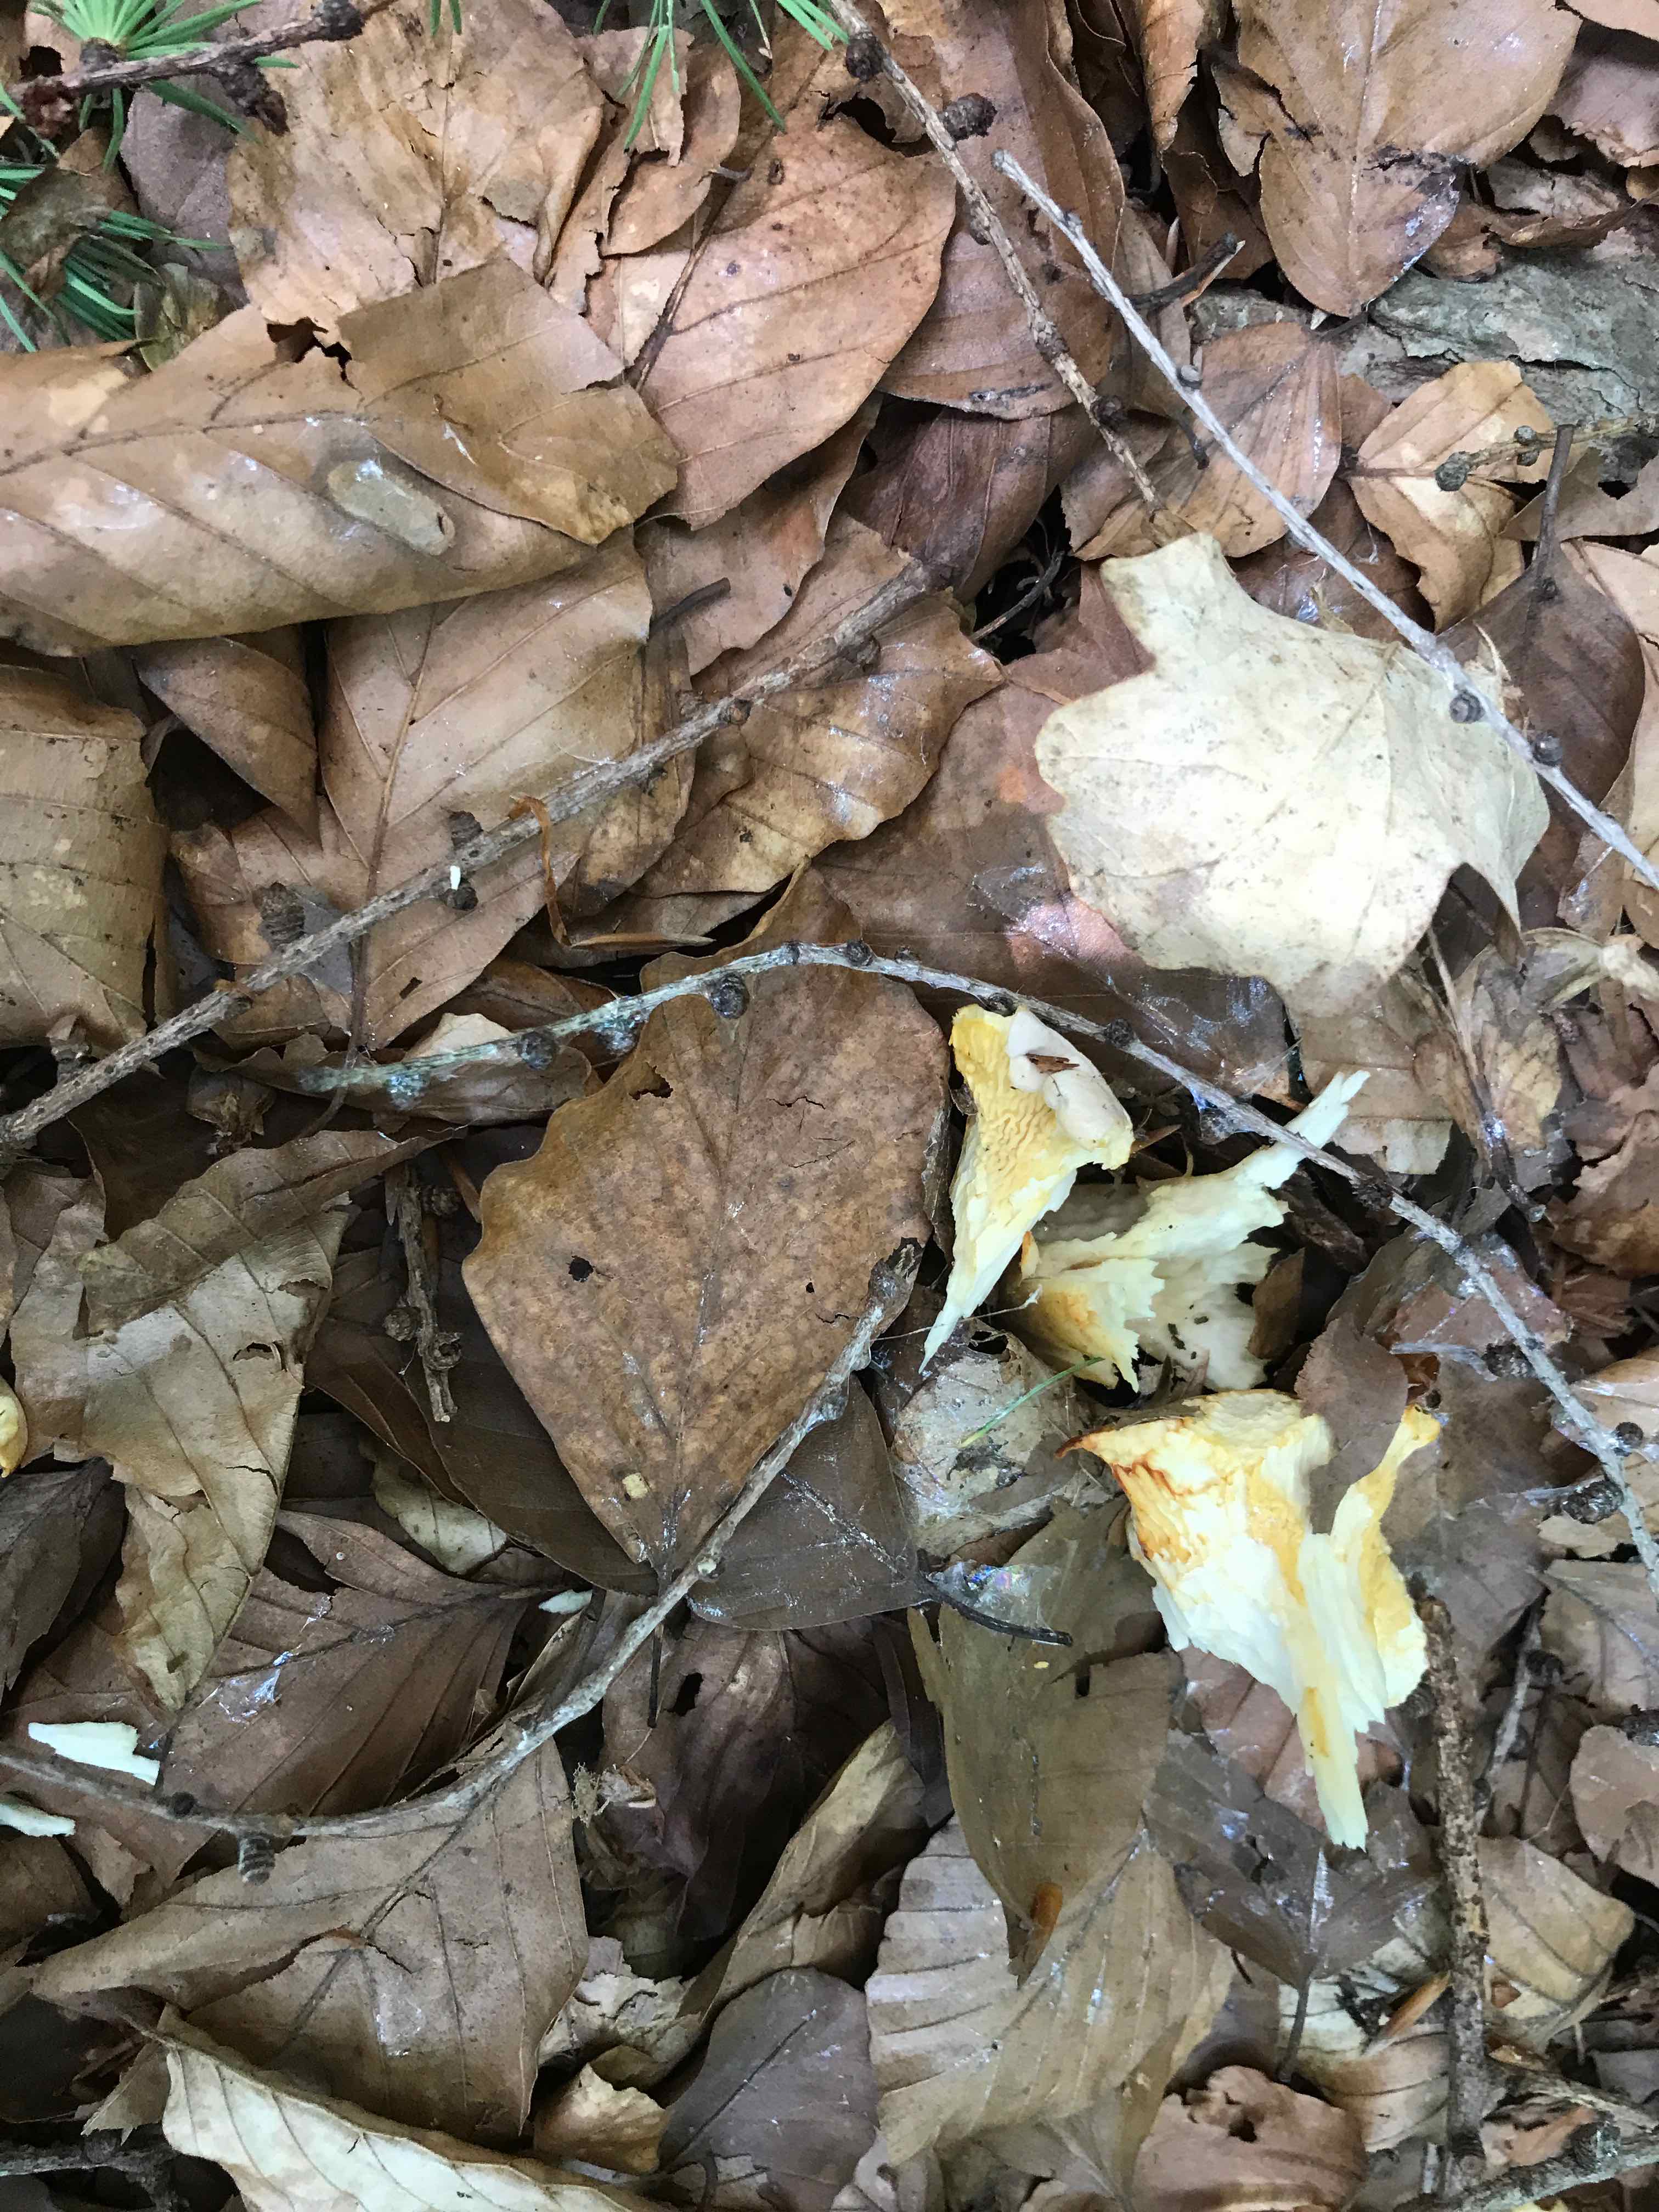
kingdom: Fungi
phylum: Basidiomycota
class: Agaricomycetes
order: Cantharellales
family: Hydnaceae
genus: Cantharellus
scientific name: Cantharellus pallens
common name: bleg kantarel
